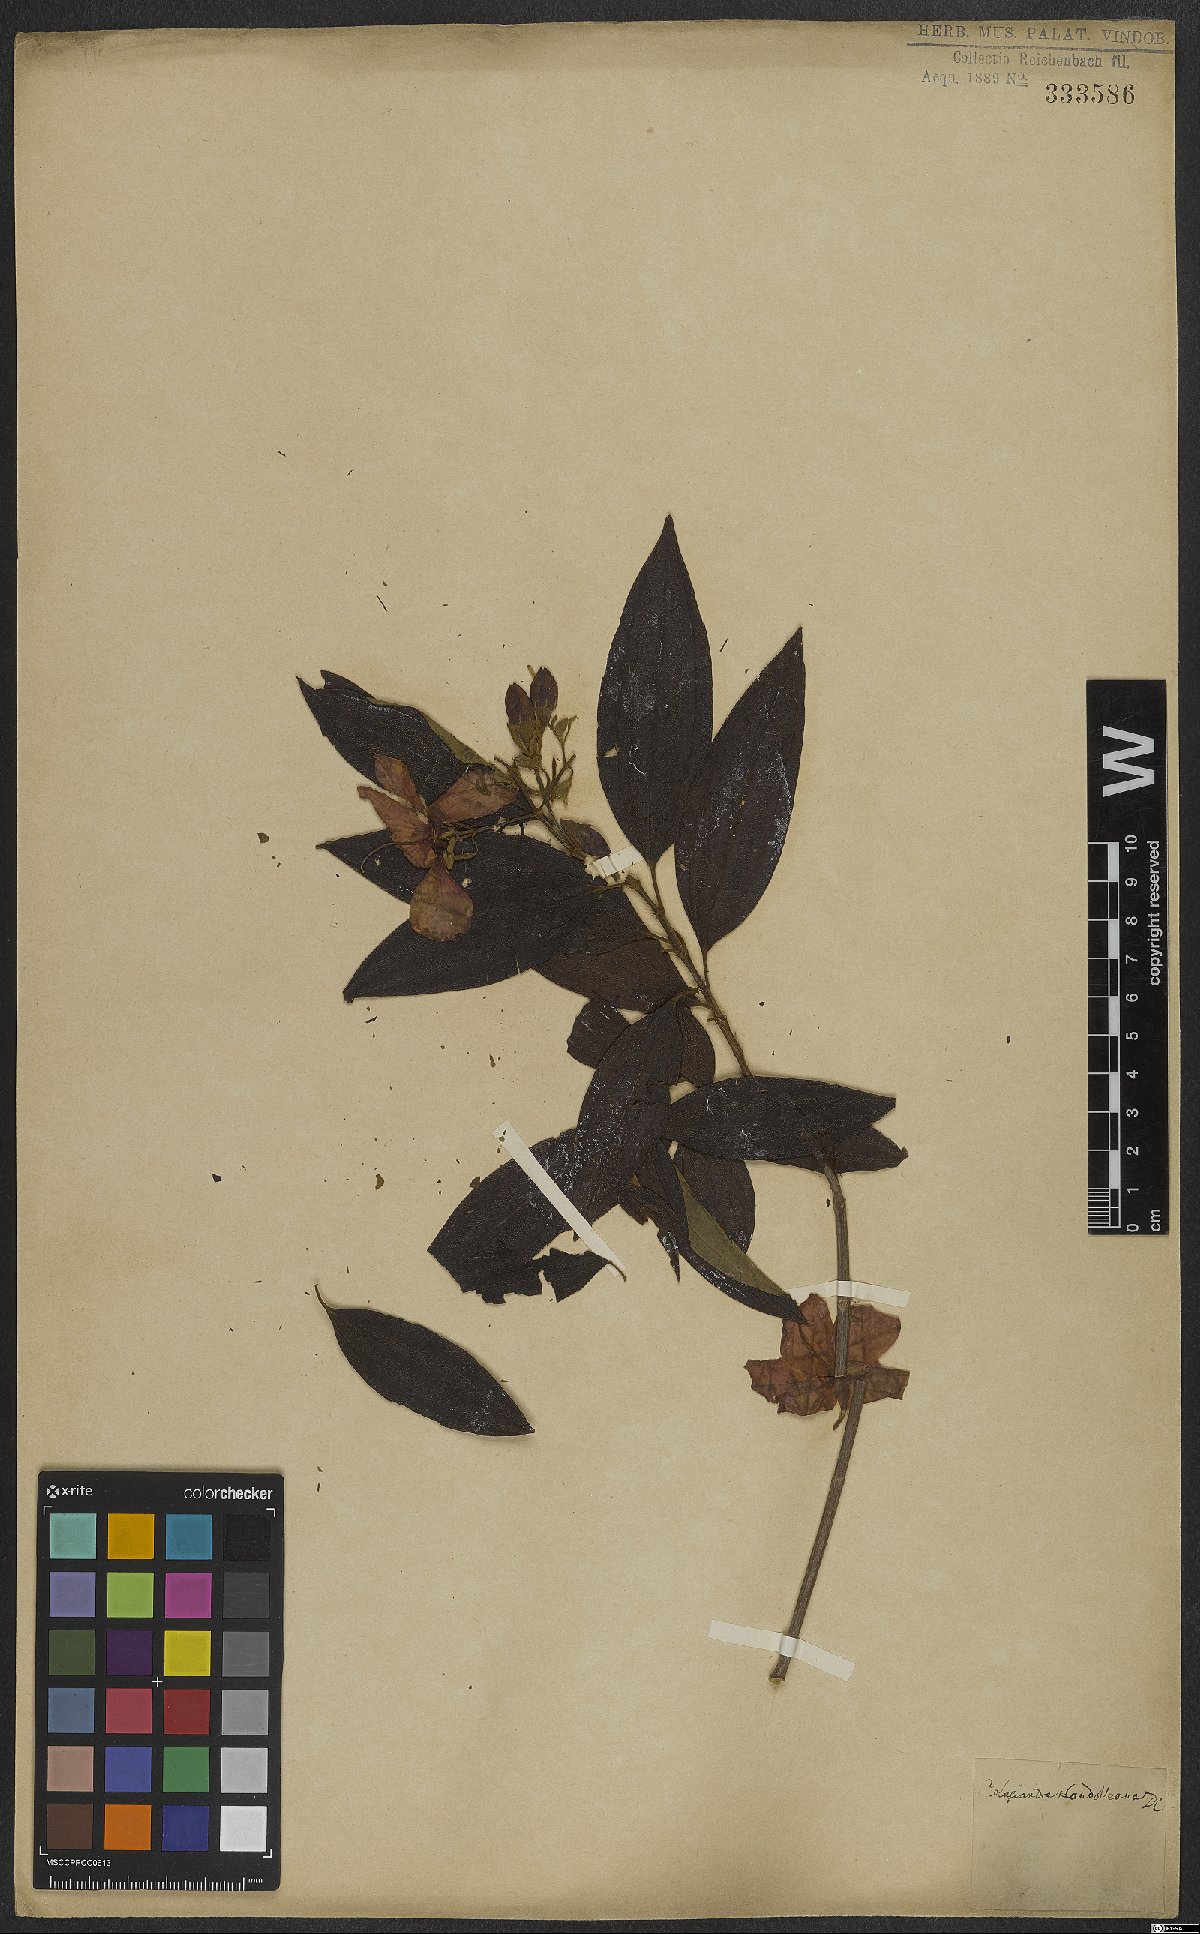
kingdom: Plantae
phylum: Tracheophyta
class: Magnoliopsida
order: Myrtales
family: Melastomataceae
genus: Pleroma
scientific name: Pleroma candolleanum
